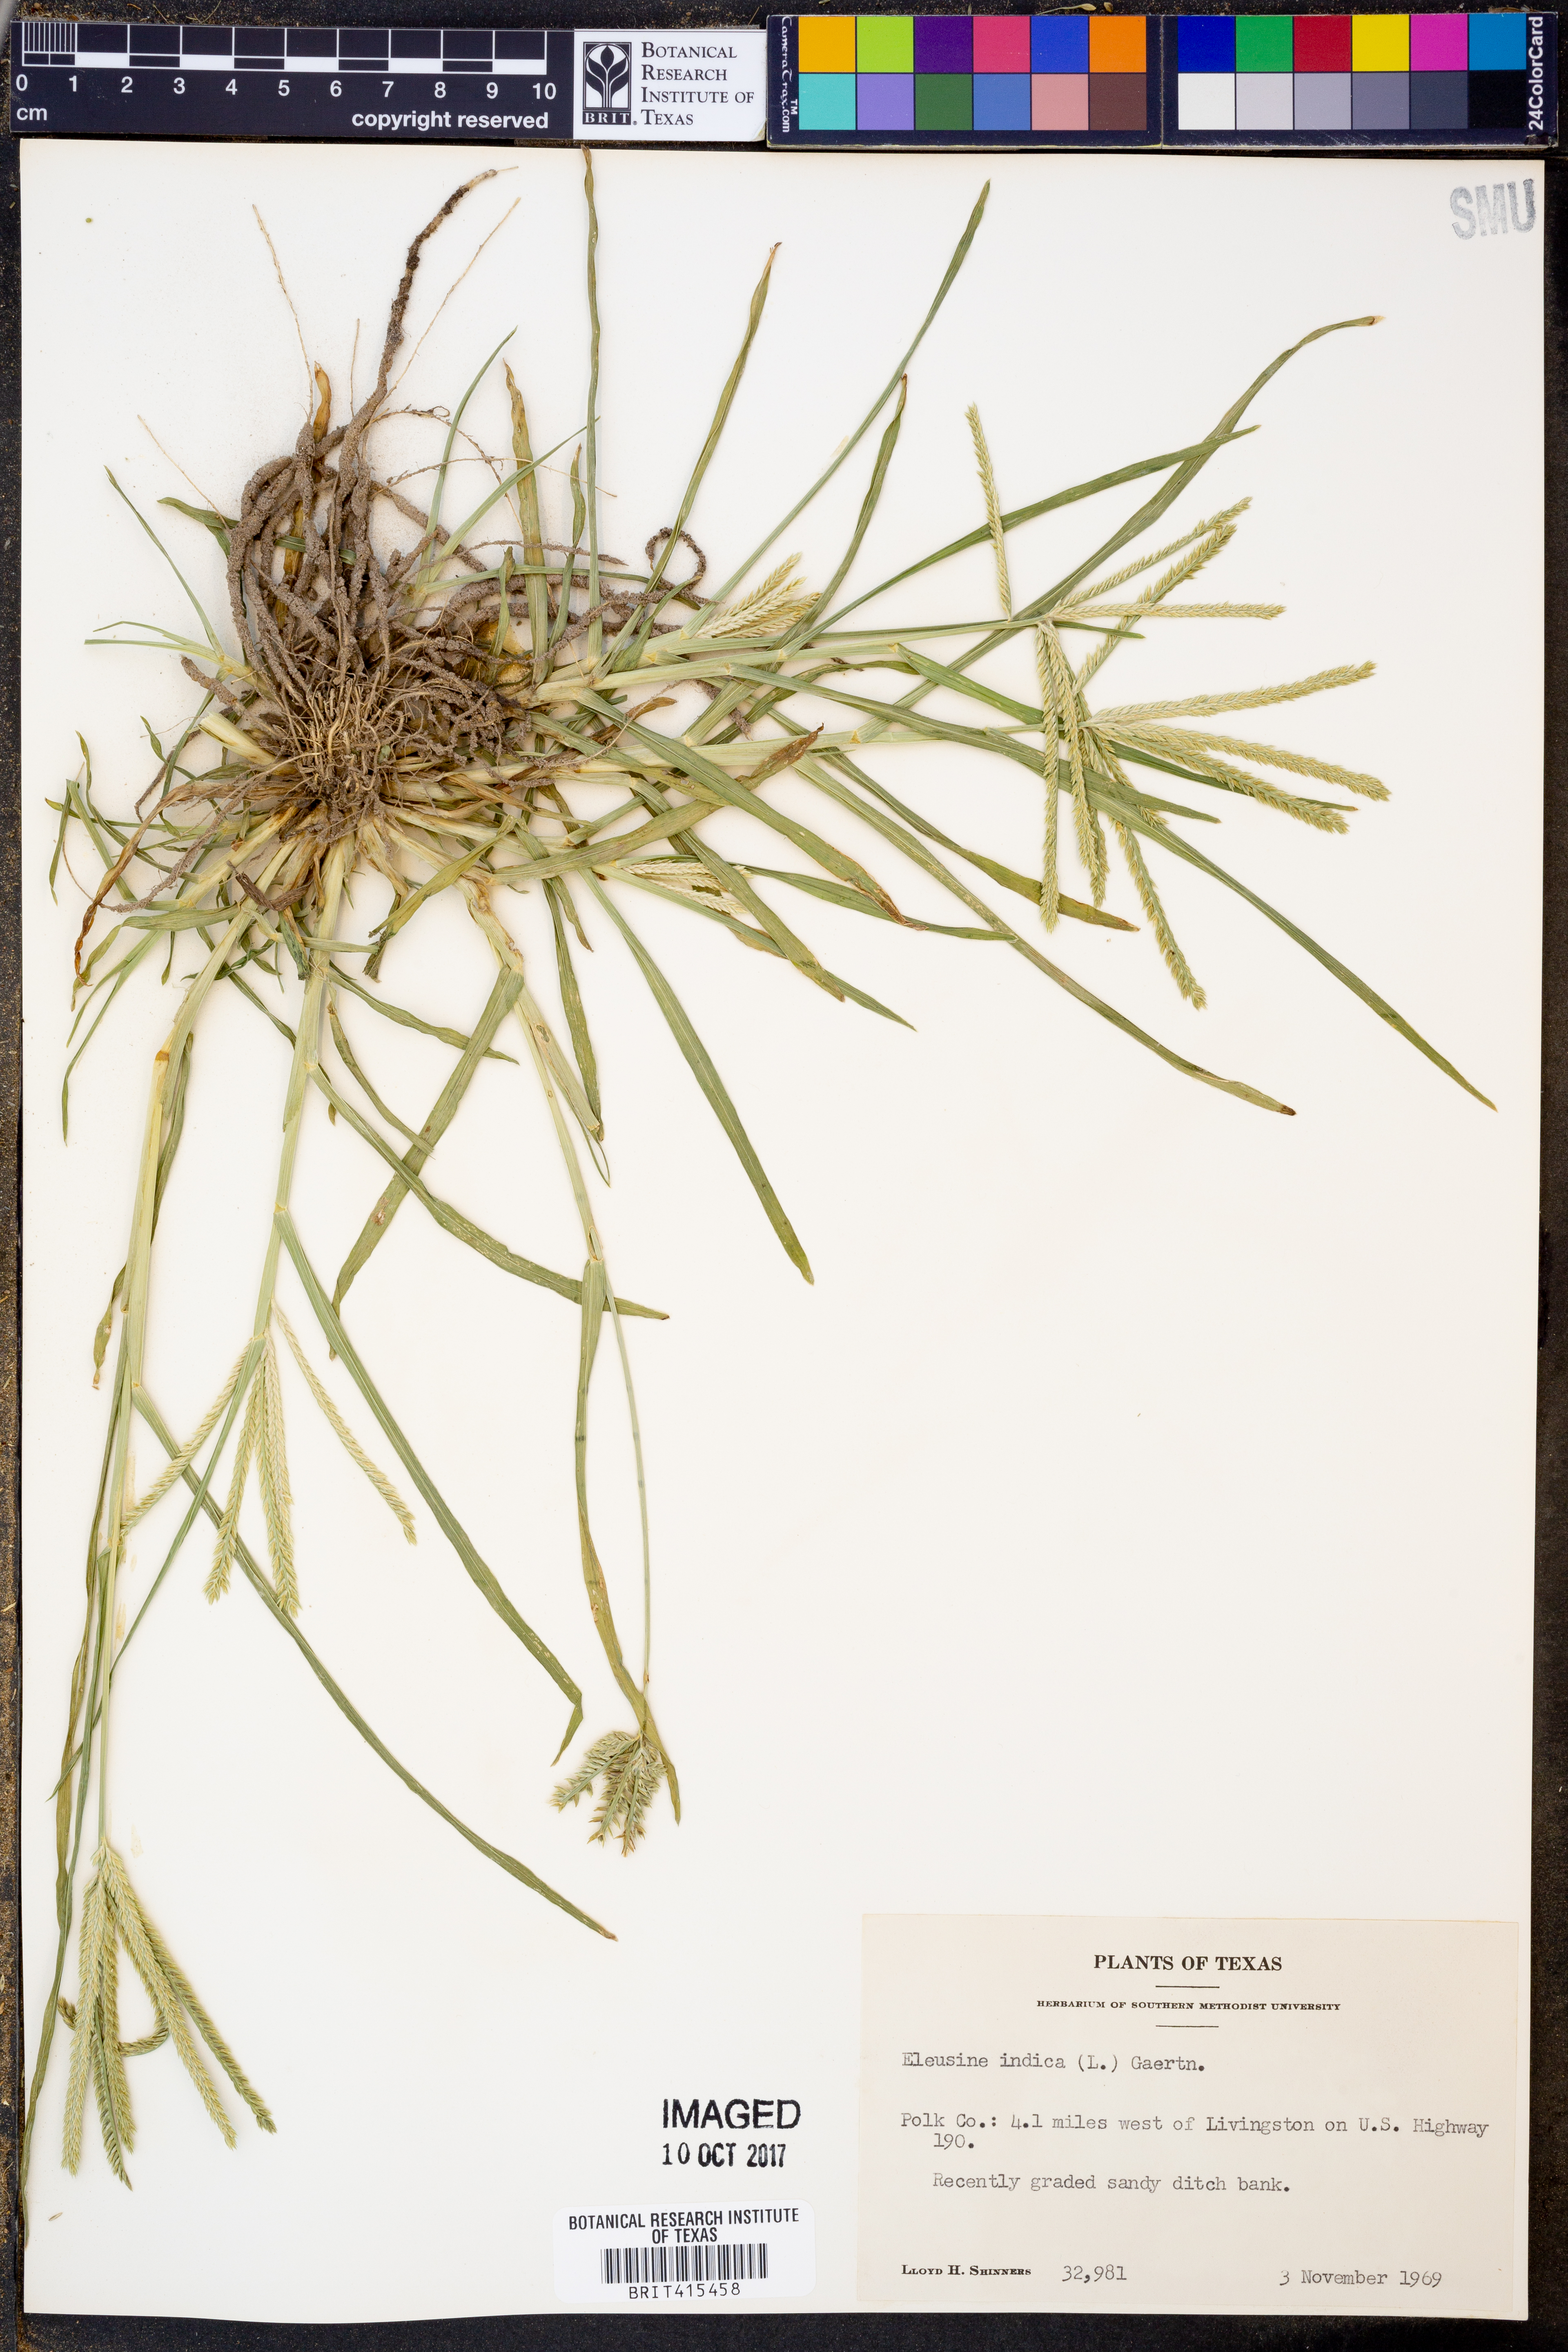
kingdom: Plantae
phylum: Tracheophyta
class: Liliopsida
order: Poales
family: Poaceae
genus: Eleusine
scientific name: Eleusine indica
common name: Yard-grass
